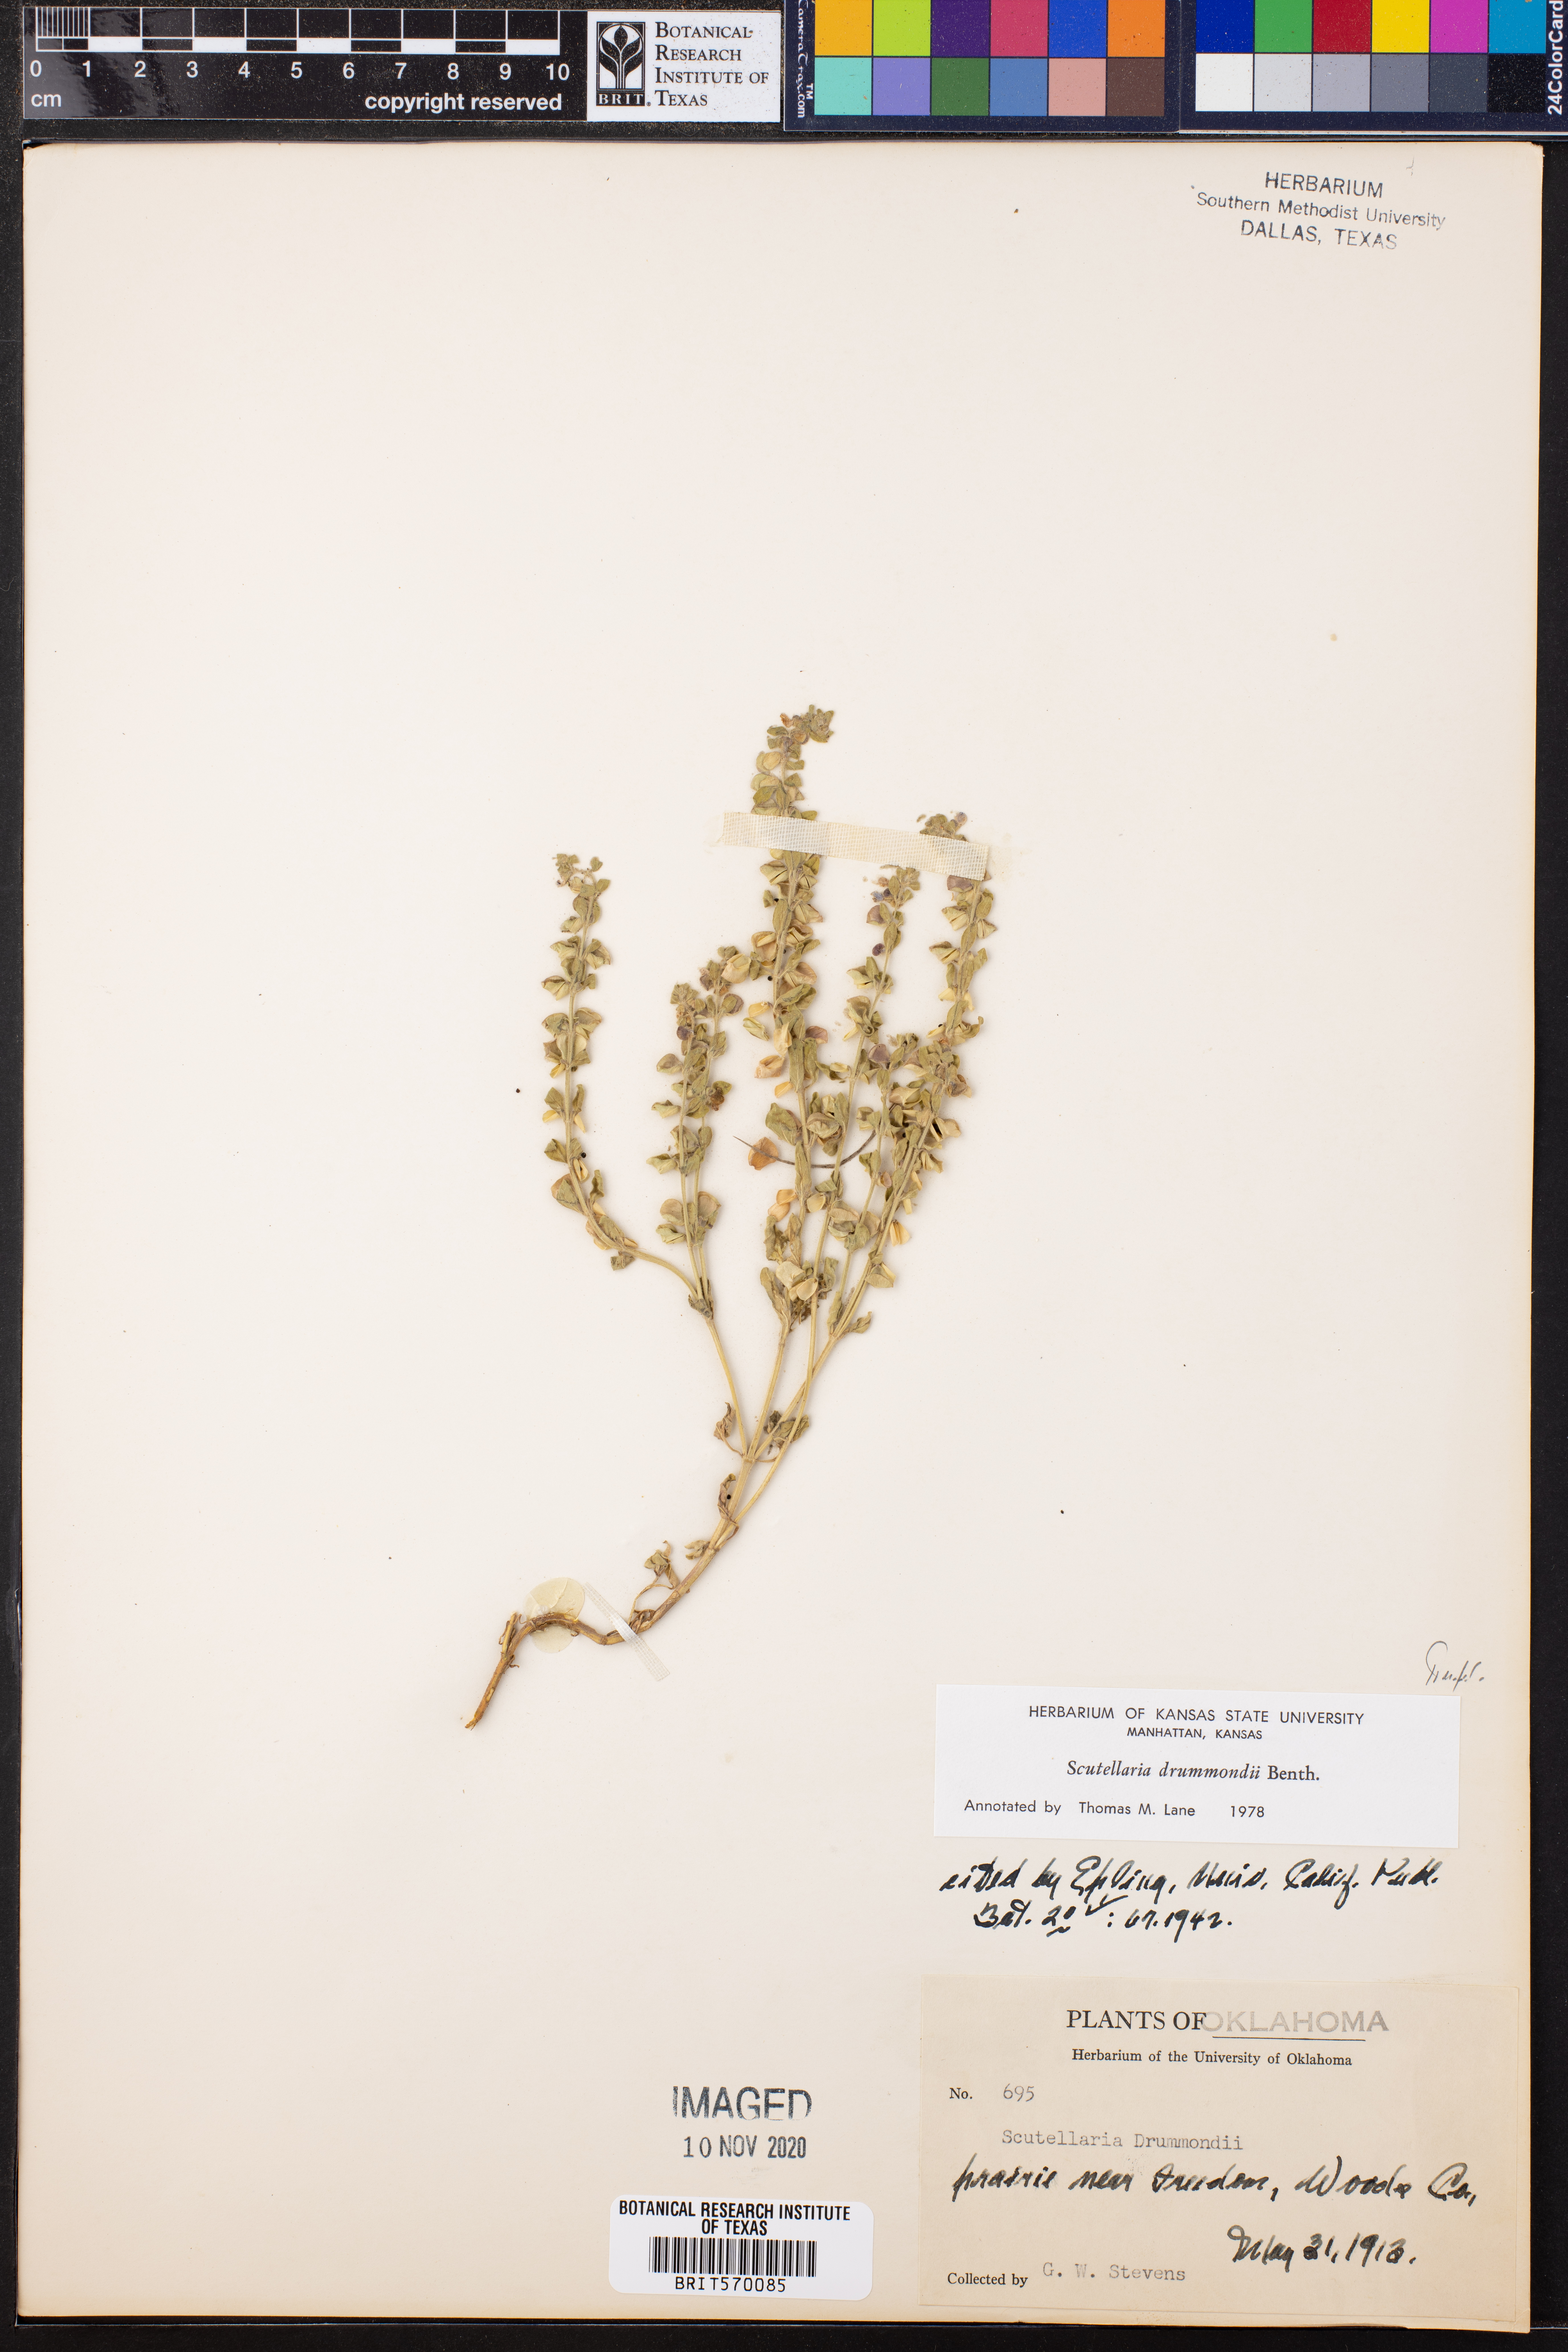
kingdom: Plantae
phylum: Tracheophyta
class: Magnoliopsida
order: Lamiales
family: Lamiaceae
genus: Scutellaria
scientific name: Scutellaria drummondii
